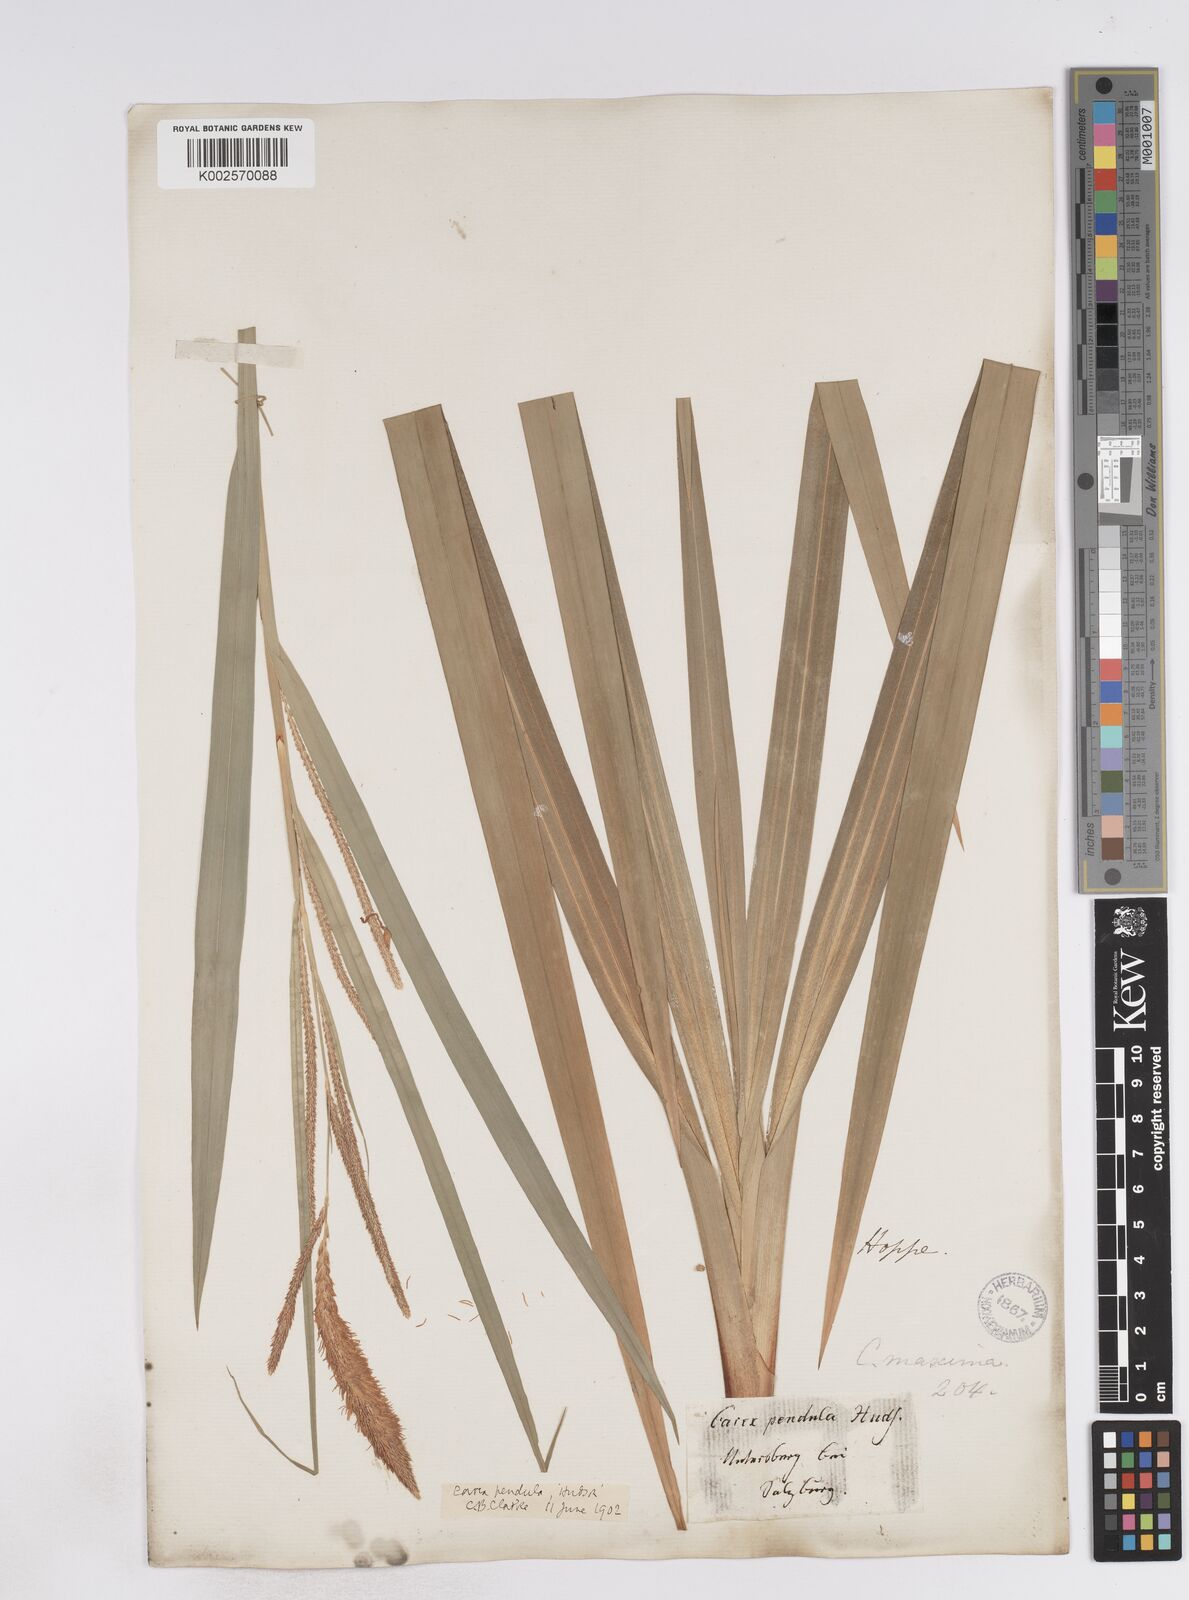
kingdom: Plantae
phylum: Tracheophyta
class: Liliopsida
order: Poales
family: Cyperaceae
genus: Carex
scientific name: Carex pendula
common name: Pendulous sedge
